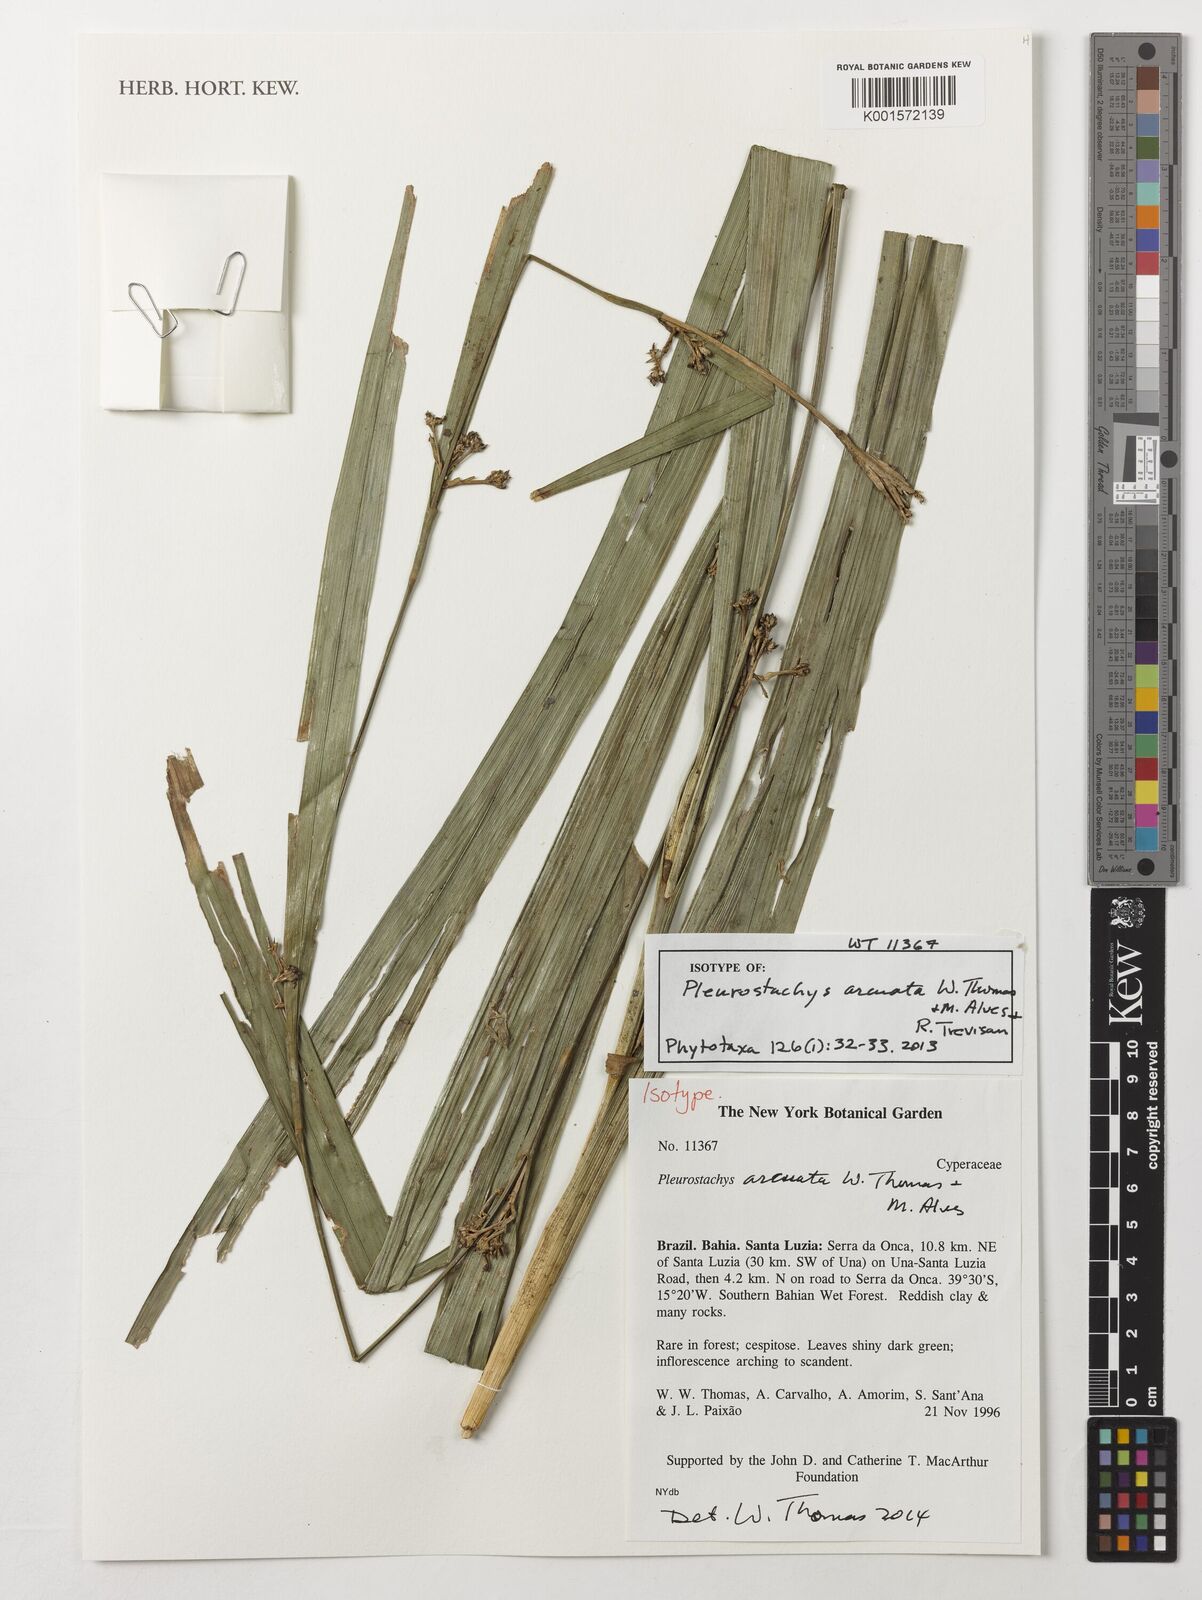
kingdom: Plantae
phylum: Tracheophyta
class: Liliopsida
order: Poales
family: Cyperaceae
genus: Rhynchospora
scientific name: Rhynchospora Pleurostachys arcuata
